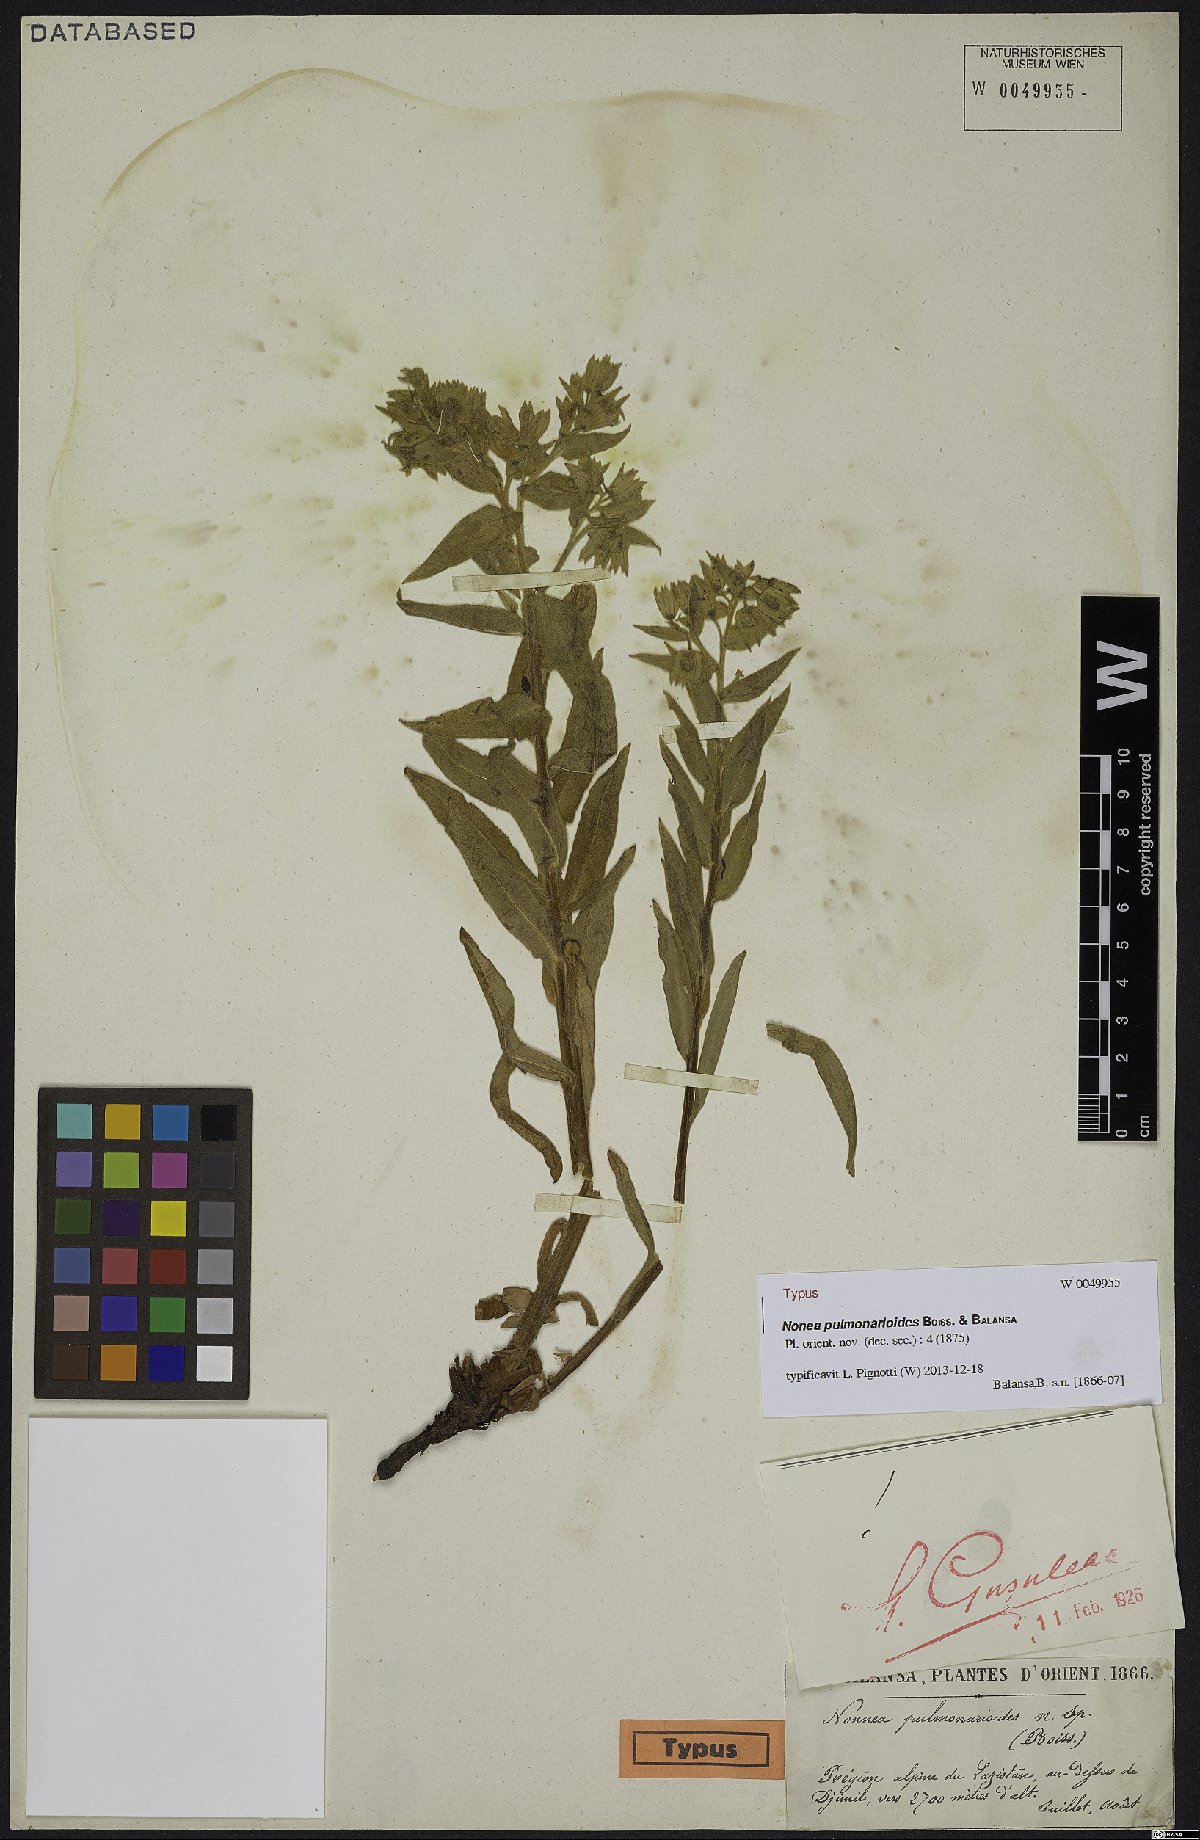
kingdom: Plantae
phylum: Tracheophyta
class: Magnoliopsida
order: Boraginales
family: Boraginaceae
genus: Nonea
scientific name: Nonea pulmonarioides
